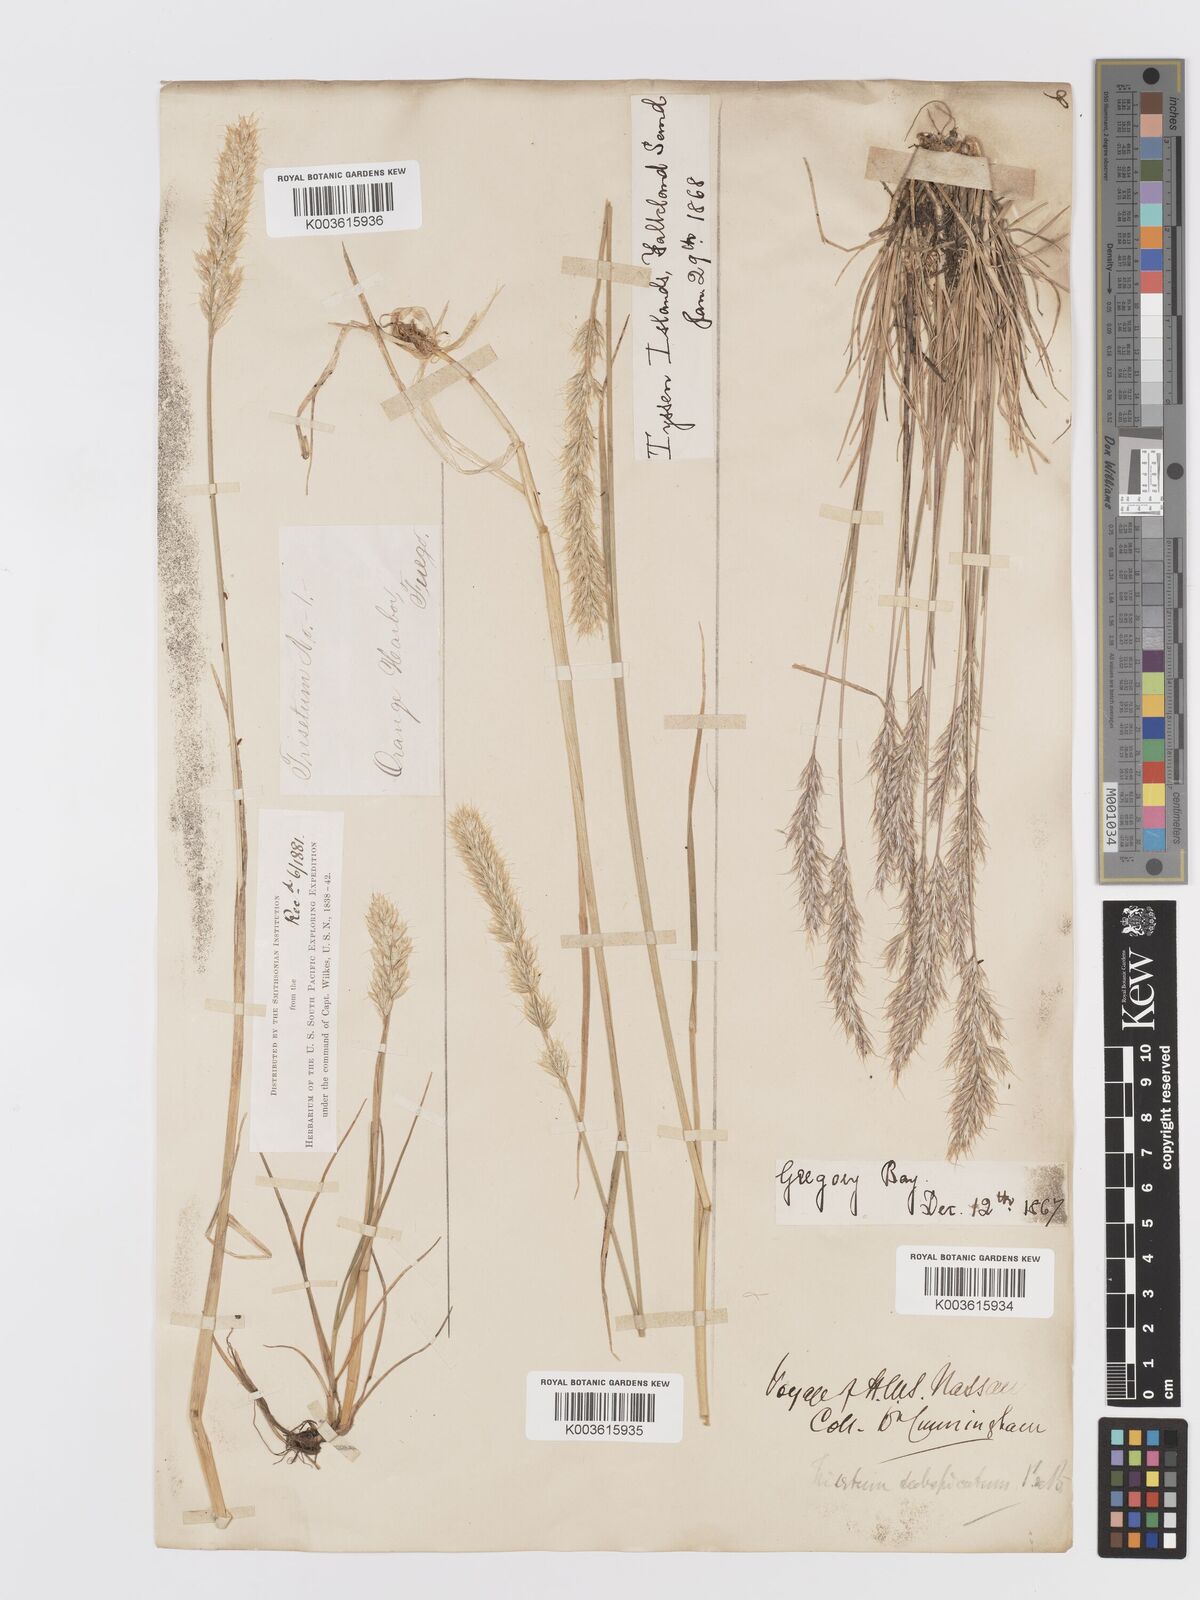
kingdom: Plantae
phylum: Tracheophyta
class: Liliopsida
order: Poales
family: Poaceae
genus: Koeleria
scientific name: Koeleria spicata
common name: Mountain trisetum
